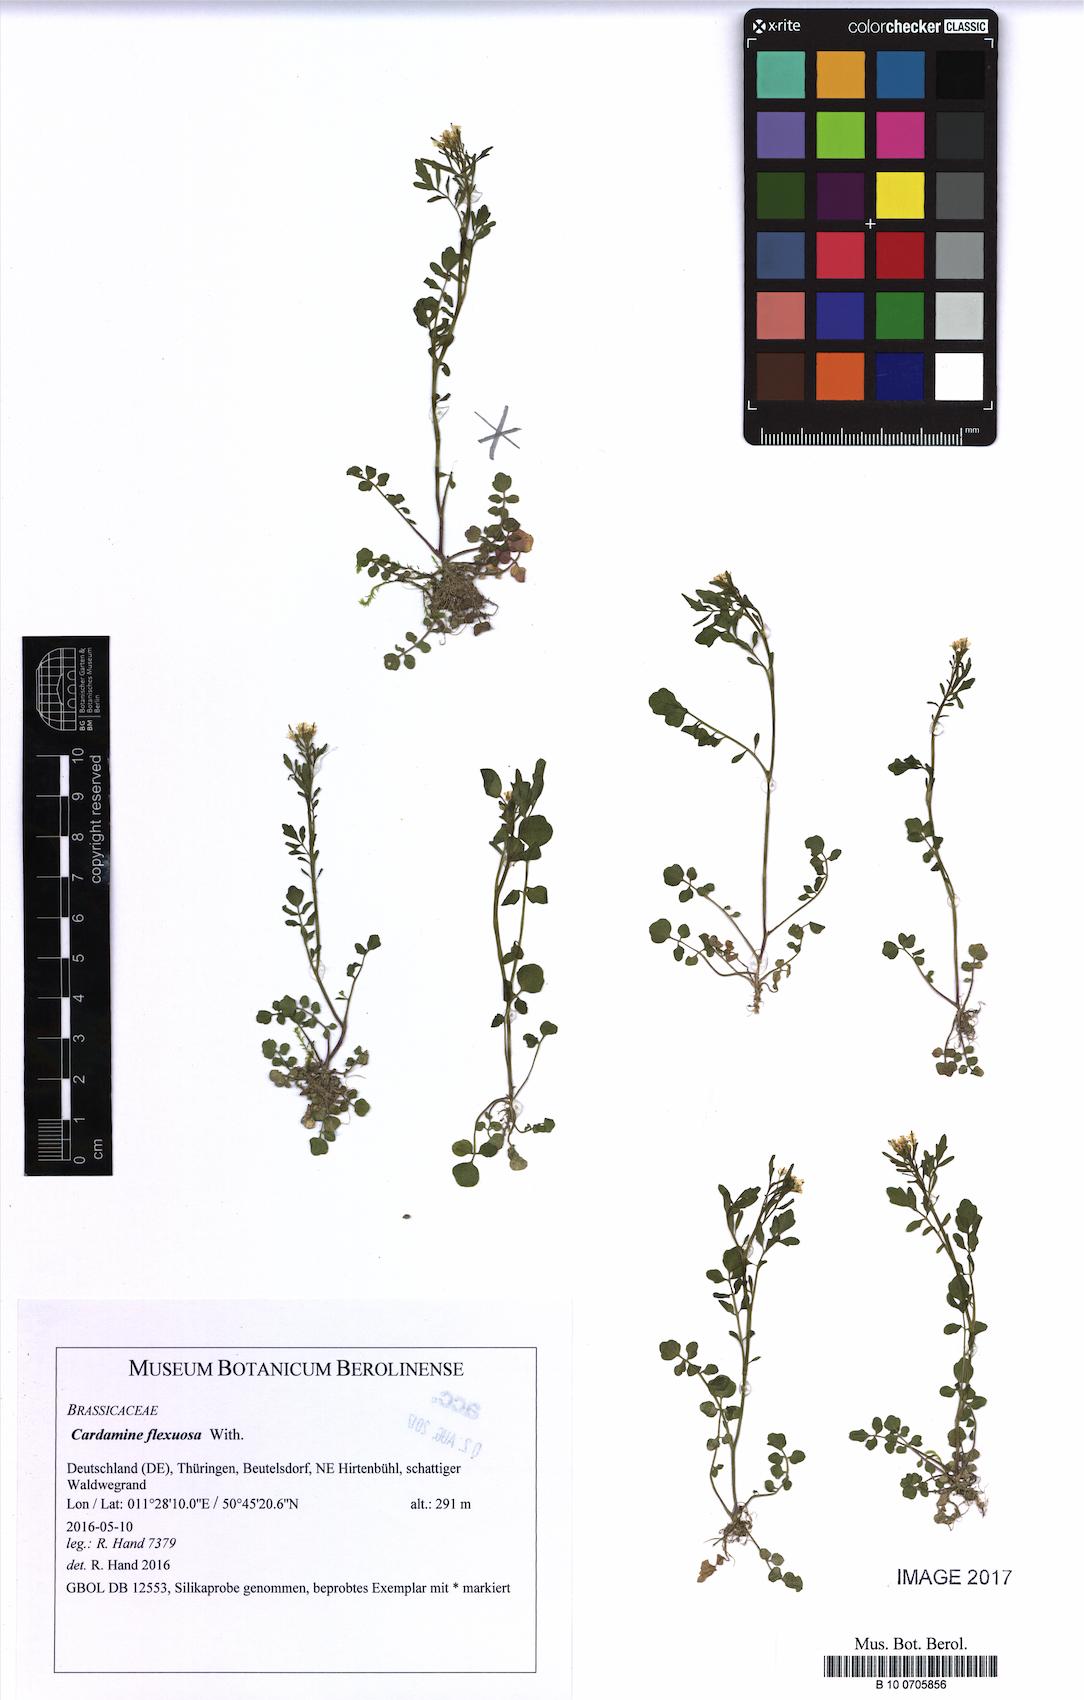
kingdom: Plantae
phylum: Tracheophyta
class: Magnoliopsida
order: Brassicales
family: Brassicaceae
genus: Cardamine
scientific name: Cardamine flexuosa
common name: Woodland bittercress
